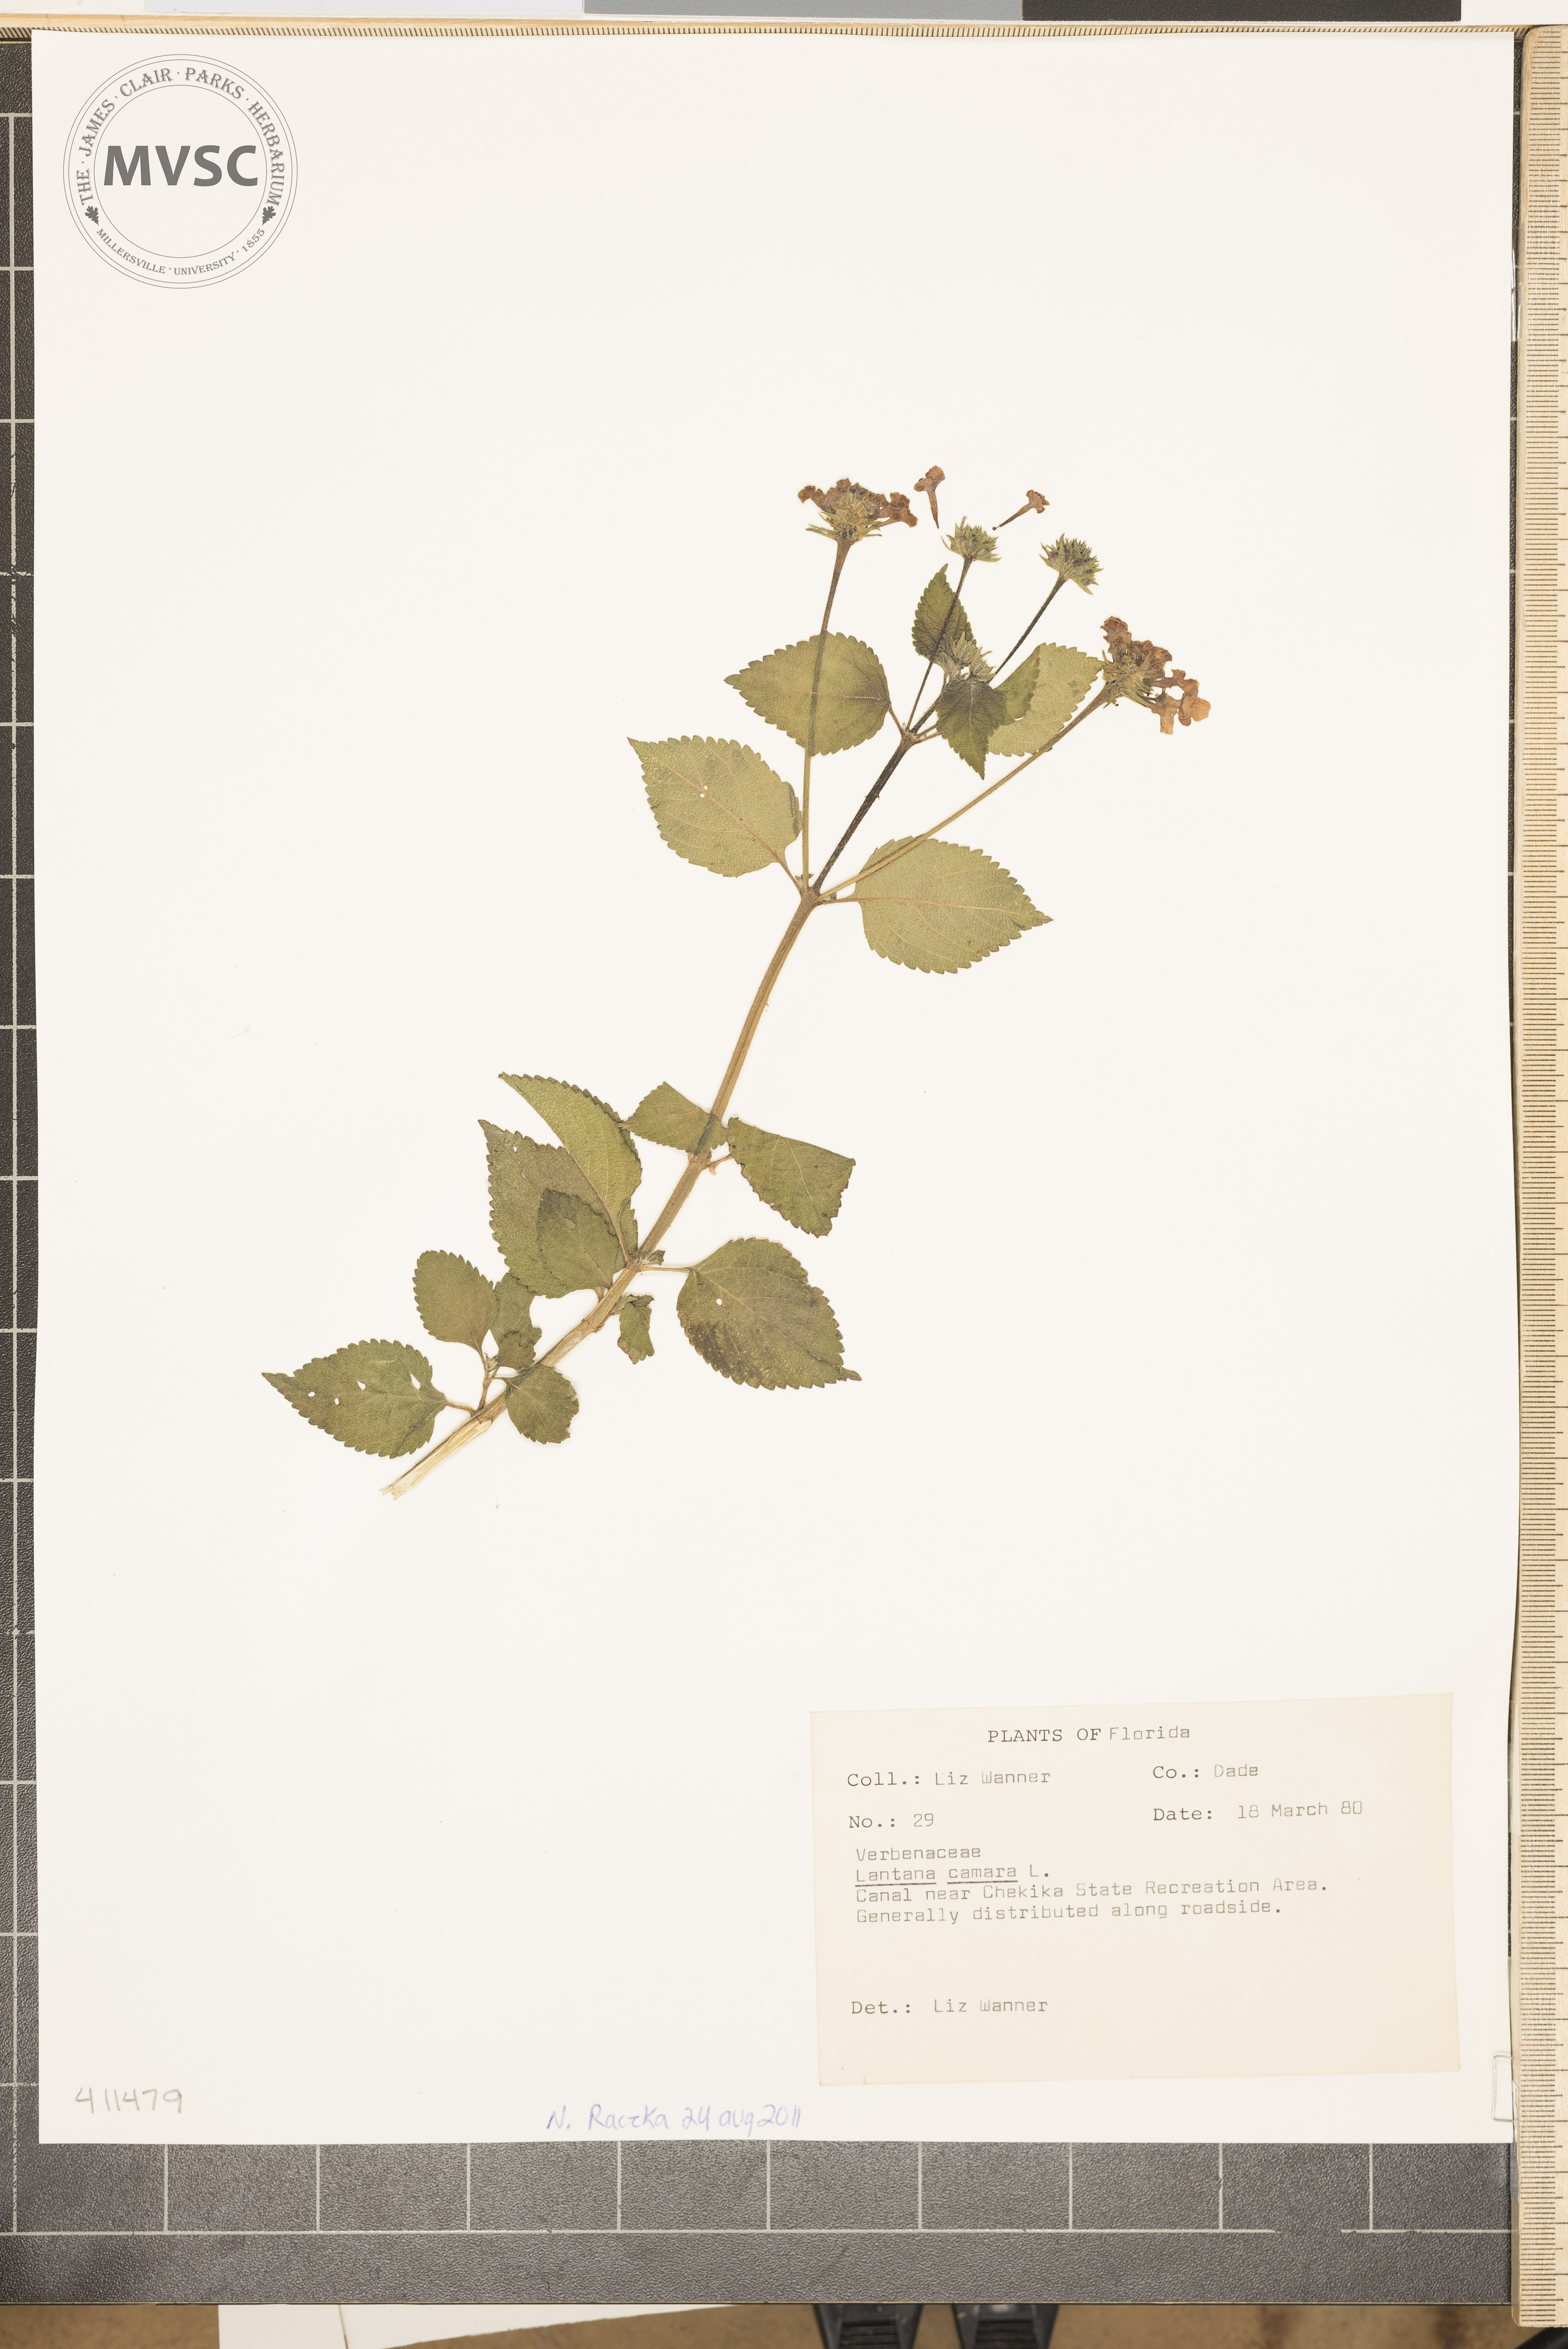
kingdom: Plantae
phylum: Tracheophyta
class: Magnoliopsida
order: Lamiales
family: Verbenaceae
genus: Lantana
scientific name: Lantana camara
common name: Lantana
